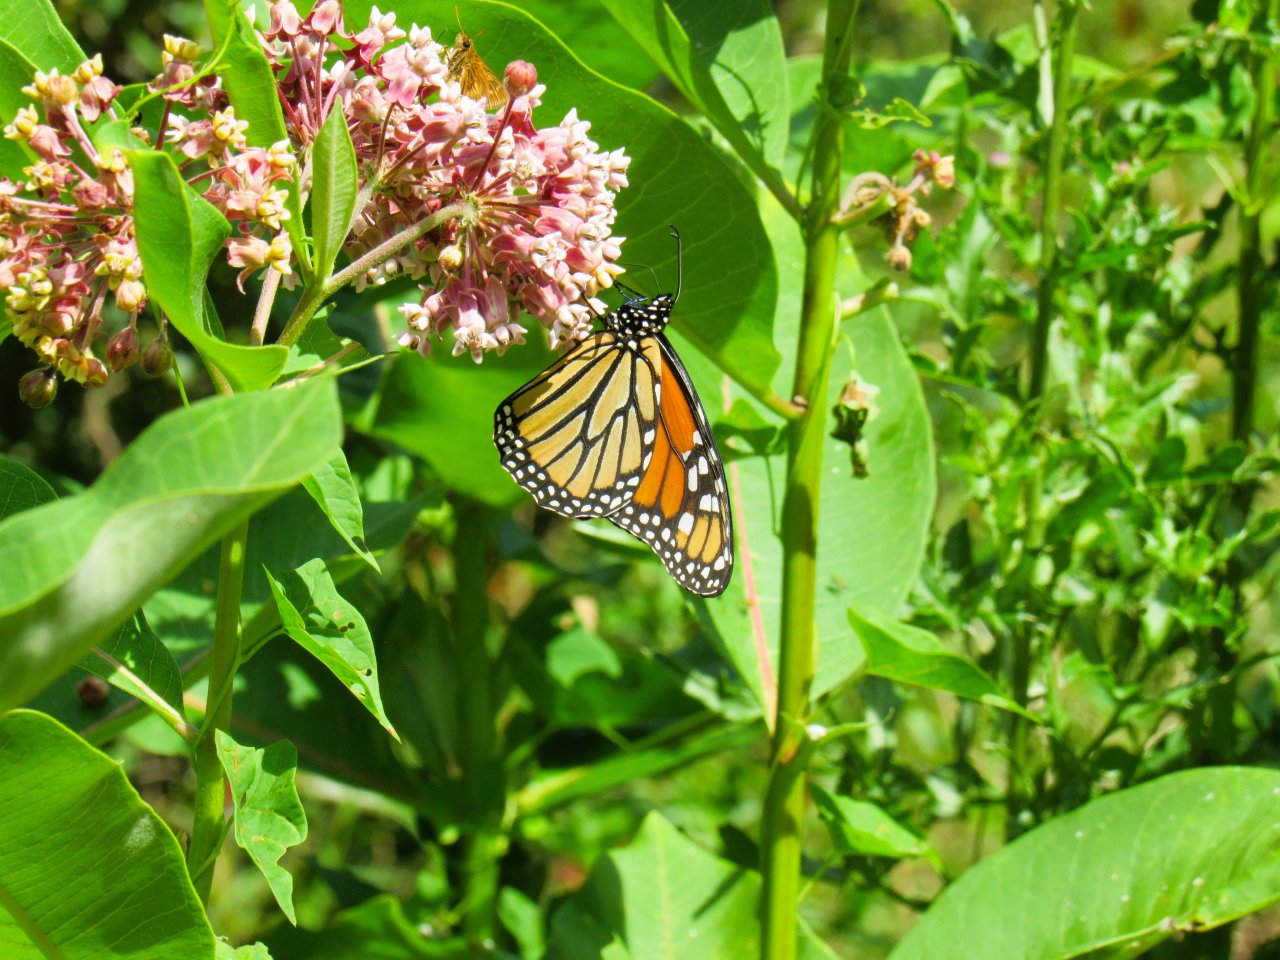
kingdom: Animalia
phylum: Arthropoda
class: Insecta
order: Lepidoptera
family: Nymphalidae
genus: Danaus
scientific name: Danaus plexippus
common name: Monarch
